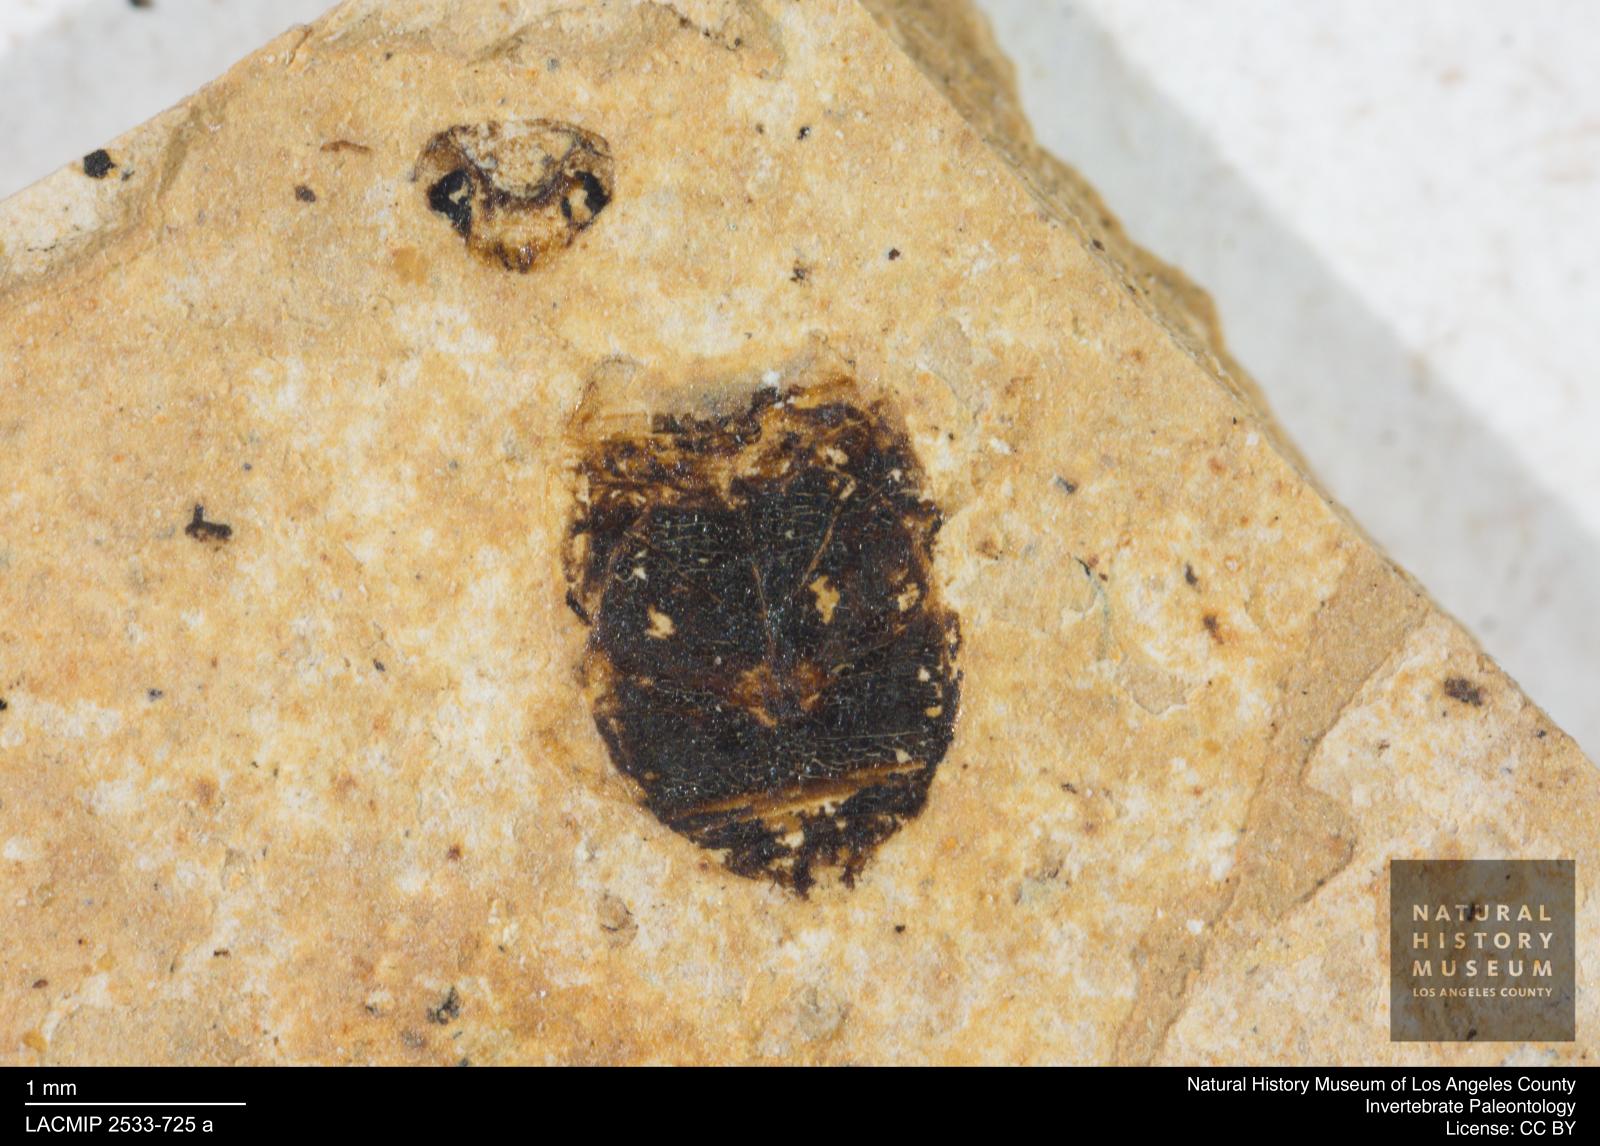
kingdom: Animalia
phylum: Arthropoda
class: Insecta
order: Coleoptera
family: Dytiscidae
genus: Oreodytes
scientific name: Oreodytes cryptolineatus
